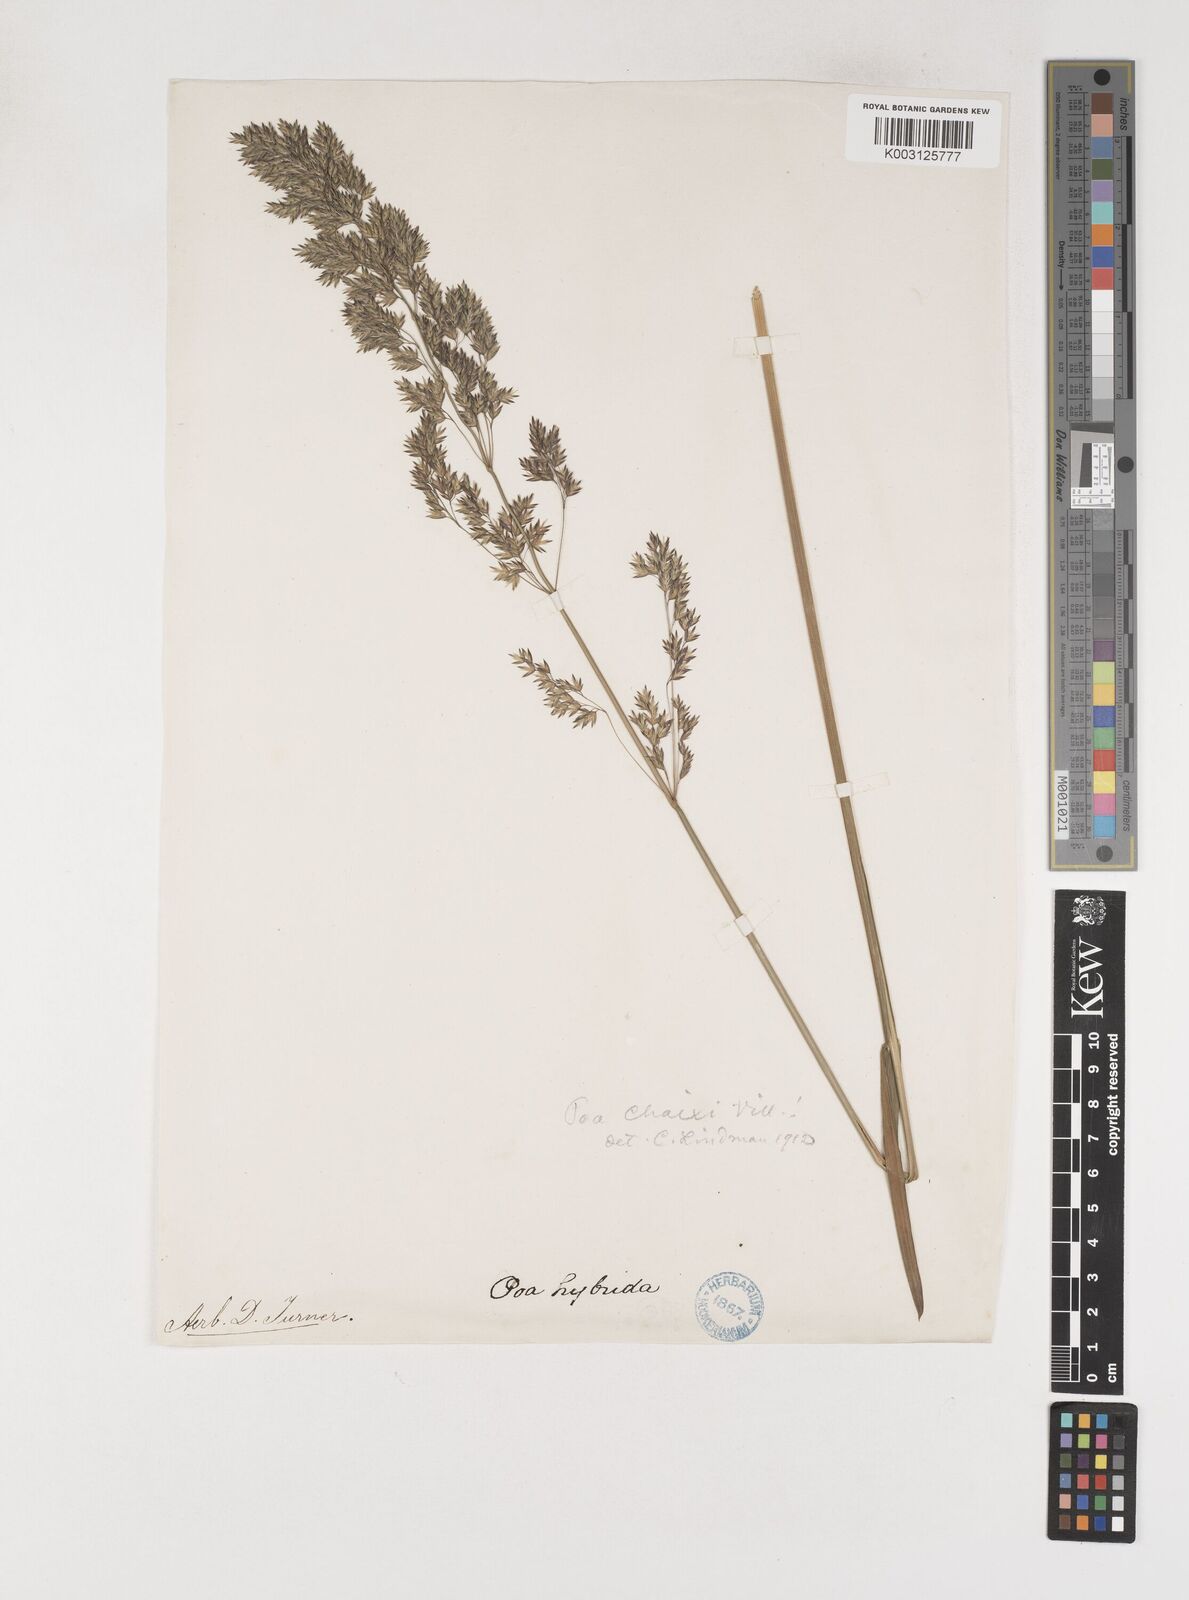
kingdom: Plantae
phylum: Tracheophyta
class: Liliopsida
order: Poales
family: Poaceae
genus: Poa
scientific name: Poa chaixii
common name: Broad-leaved meadow-grass
